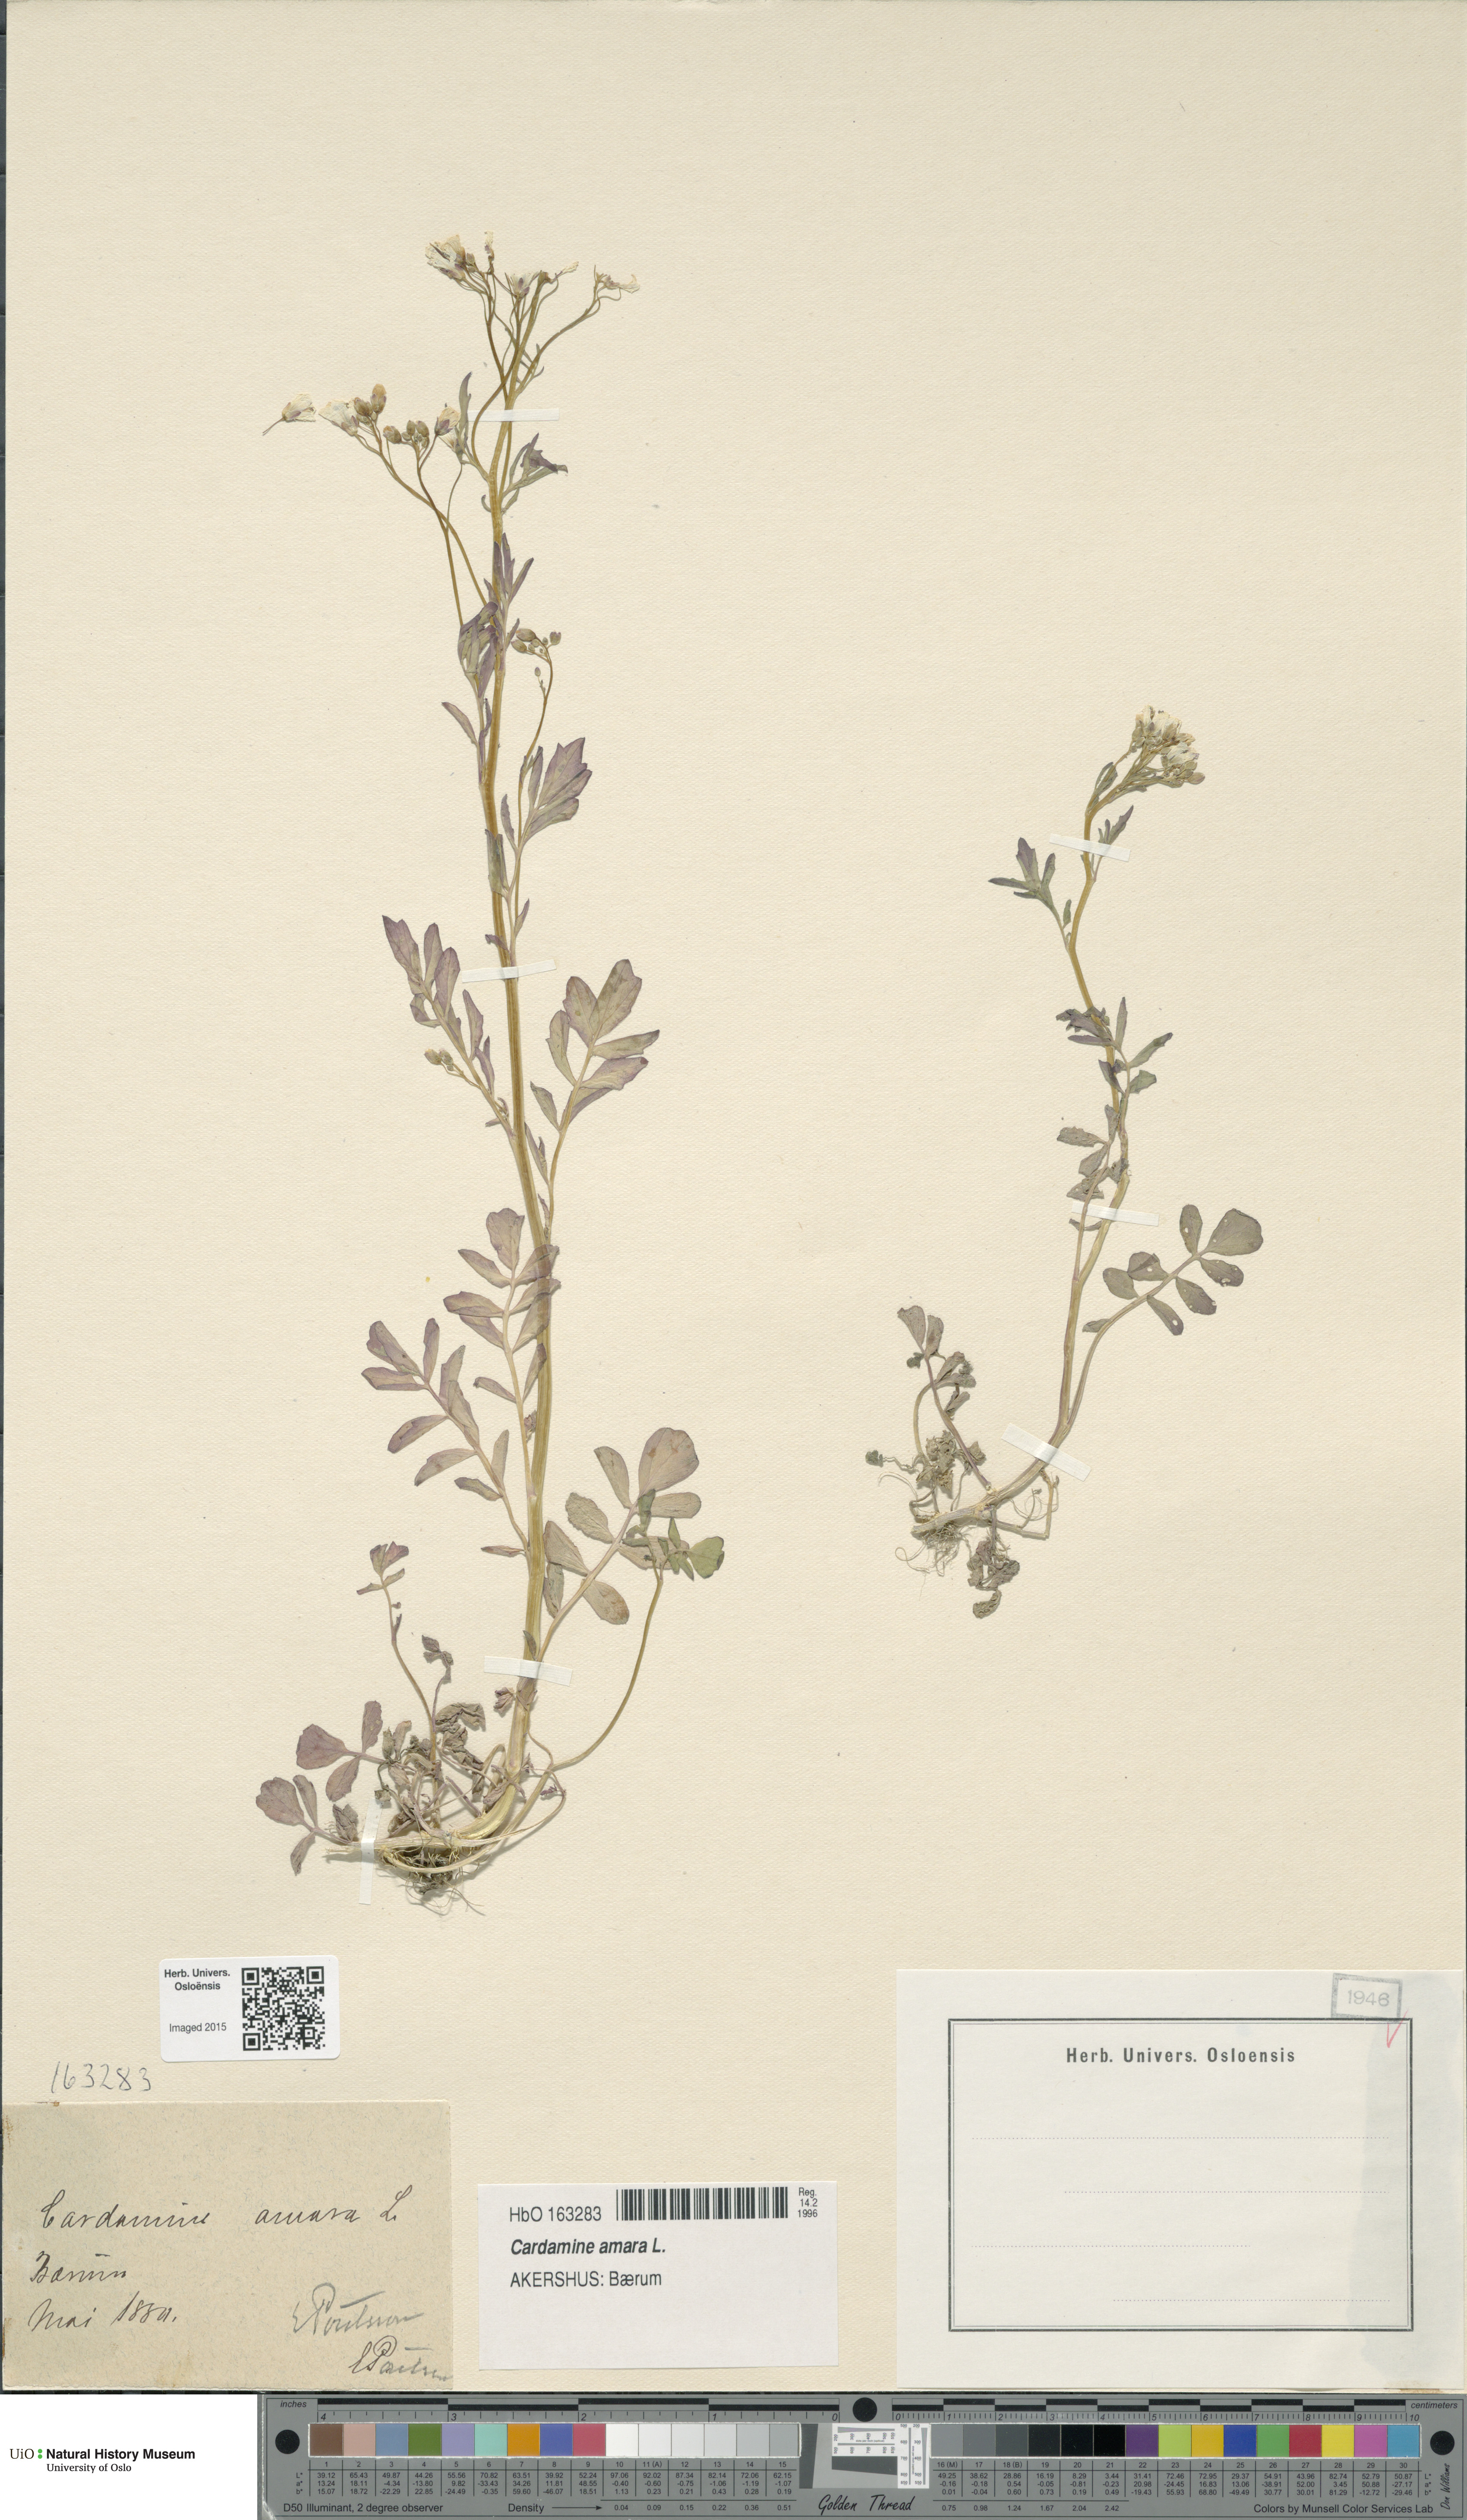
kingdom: Plantae
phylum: Tracheophyta
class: Magnoliopsida
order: Brassicales
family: Brassicaceae
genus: Cardamine
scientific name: Cardamine amara
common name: Large bitter-cress
